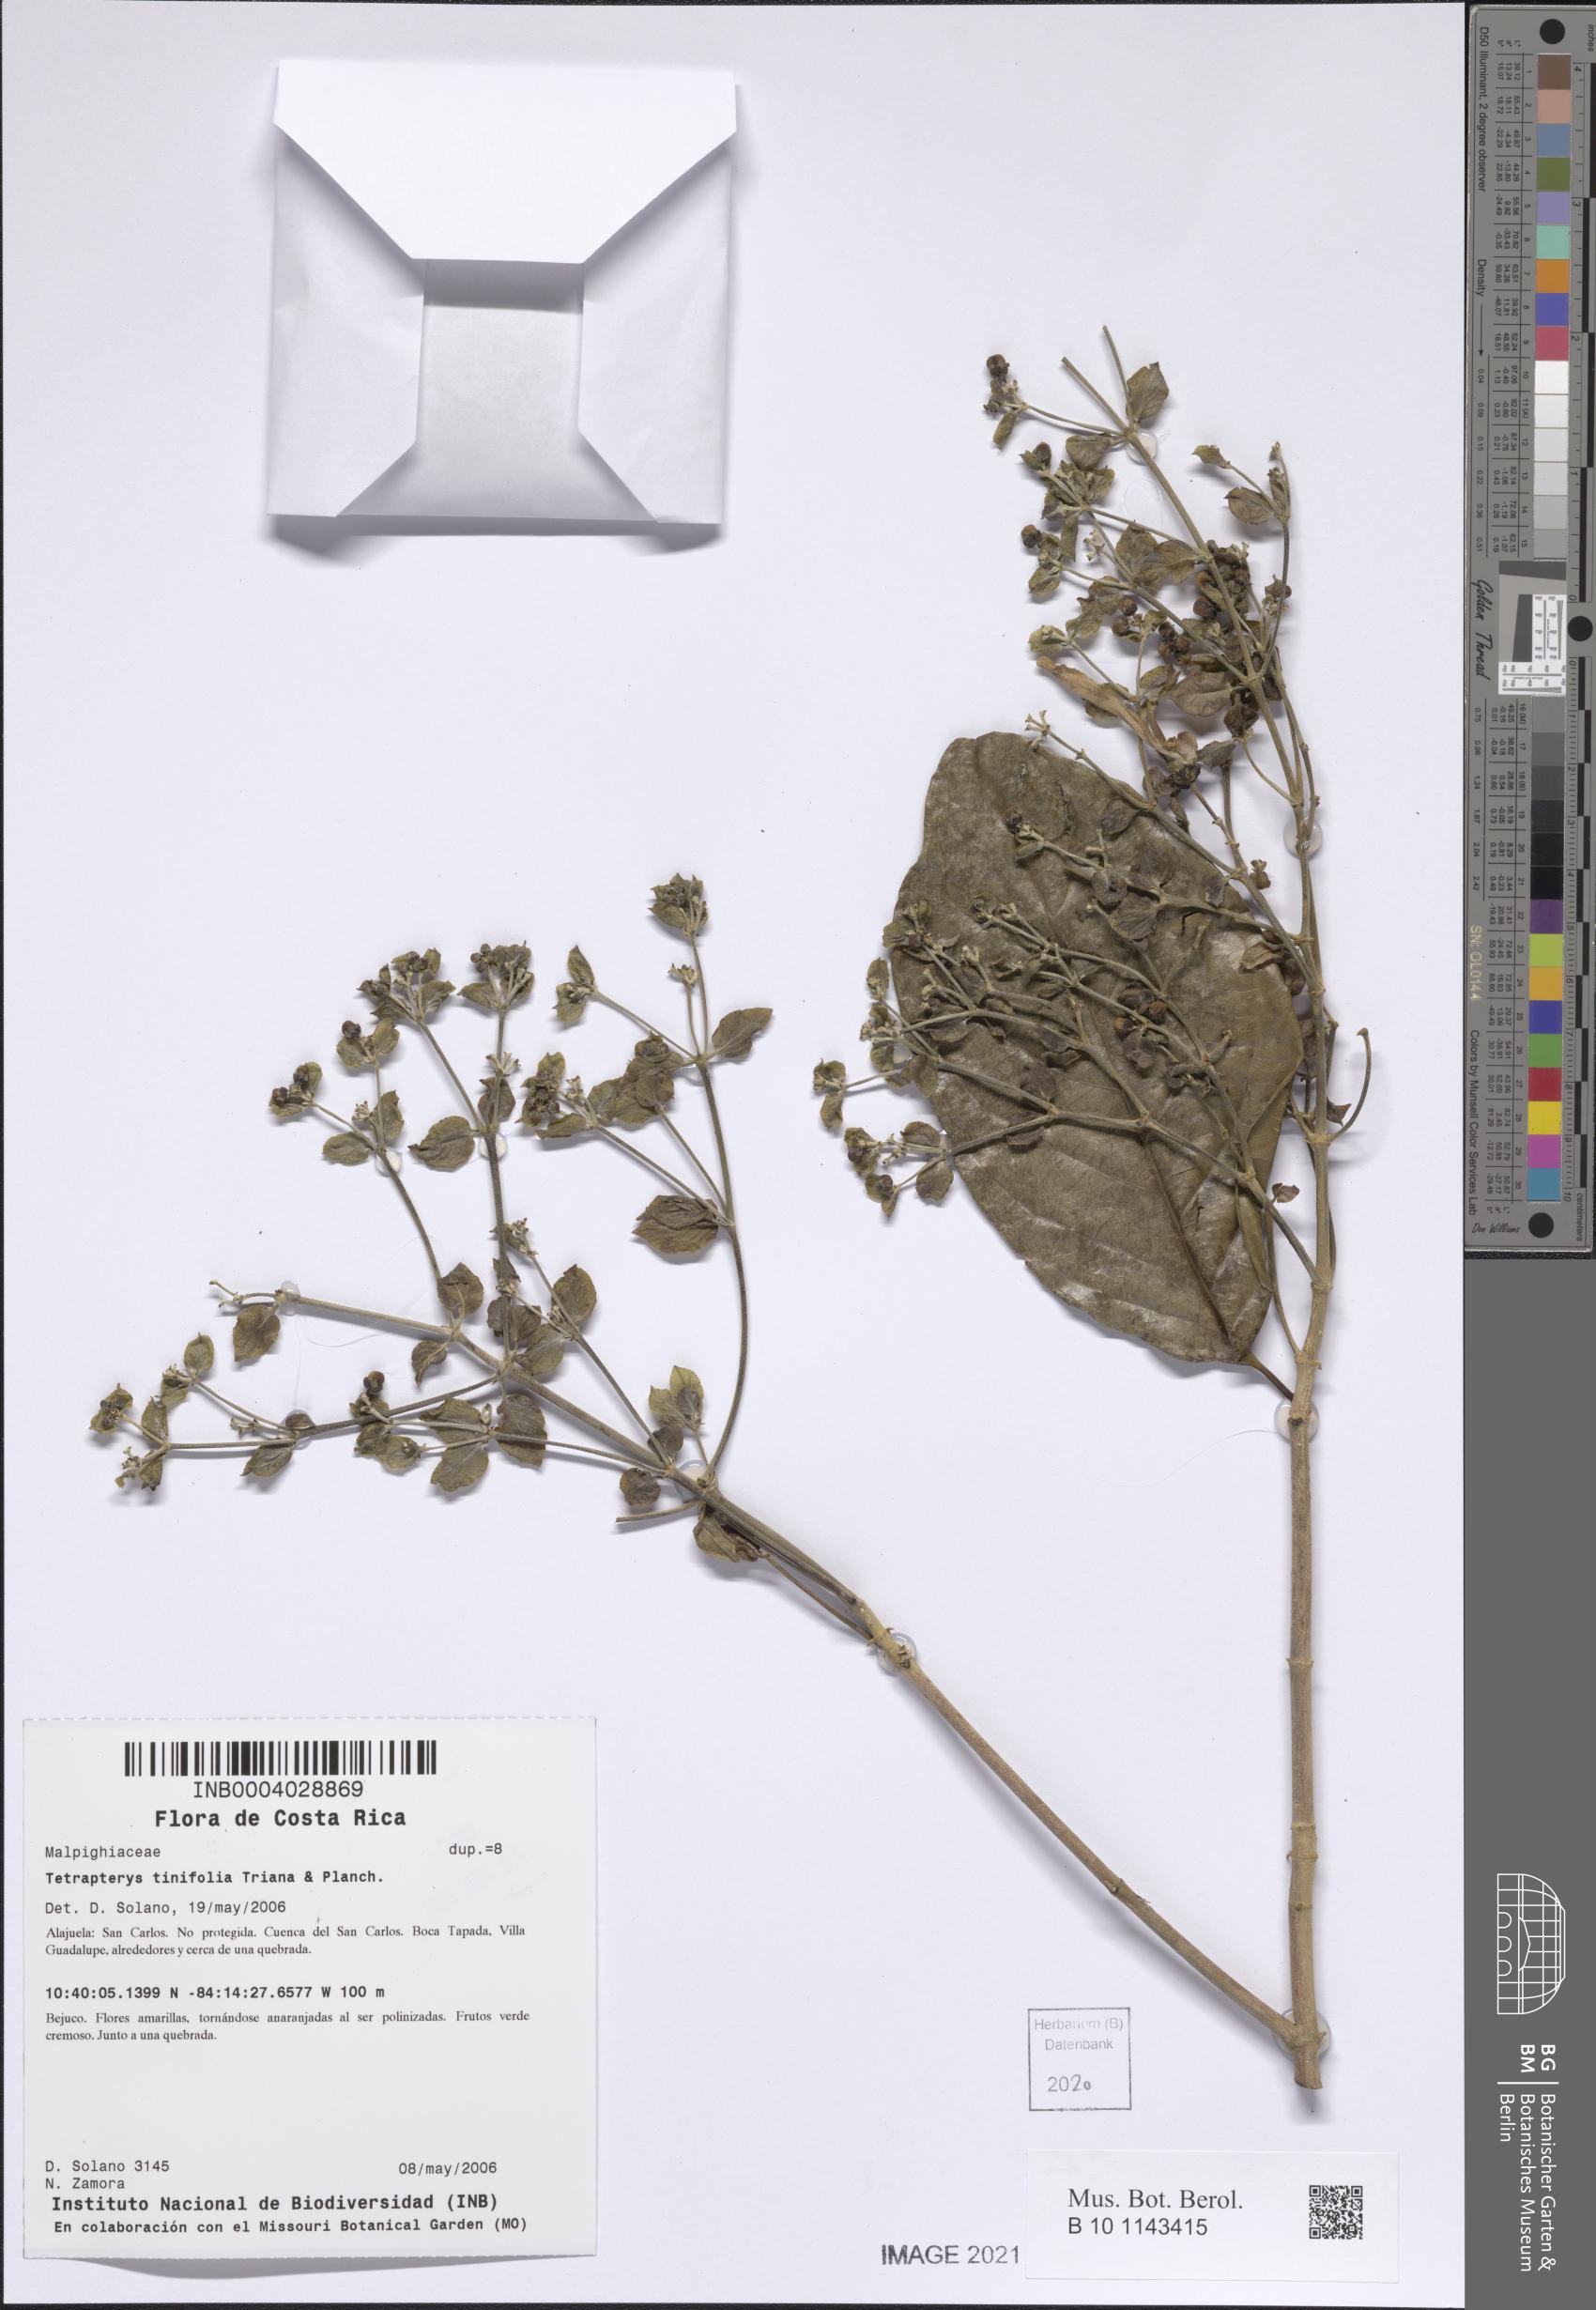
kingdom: Plantae
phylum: Tracheophyta
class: Magnoliopsida
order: Malpighiales
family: Malpighiaceae
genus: Tetrapterys
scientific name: Tetrapterys tinifolia
